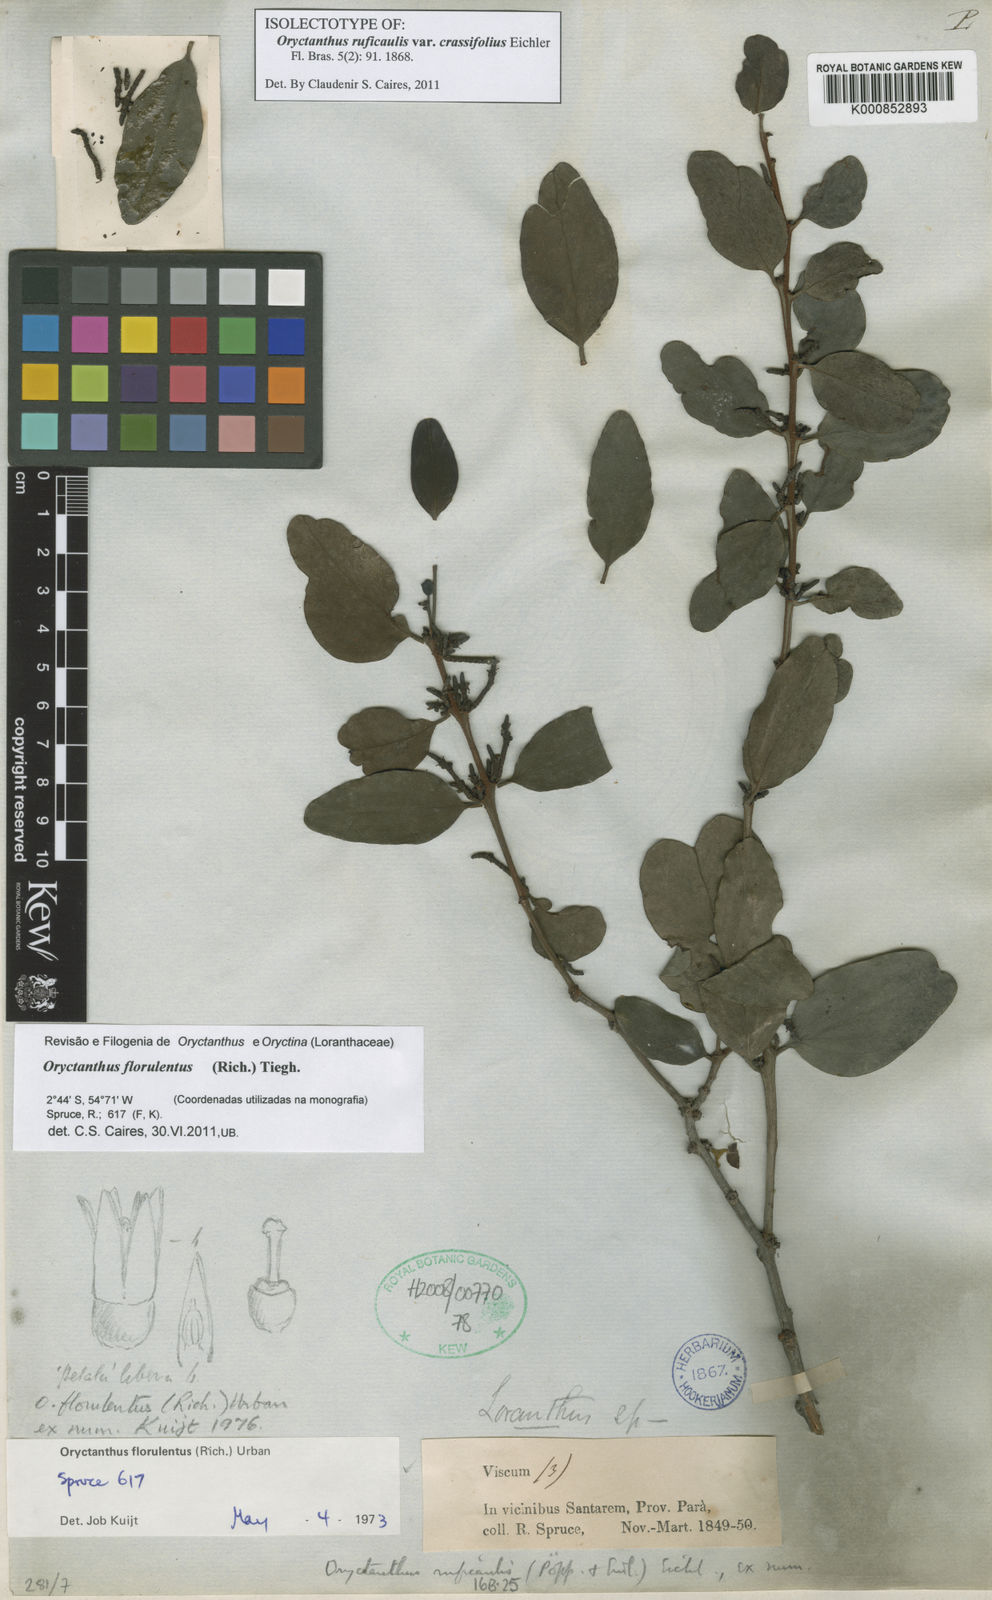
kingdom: Plantae
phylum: Tracheophyta
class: Magnoliopsida
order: Santalales
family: Loranthaceae
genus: Oryctanthus
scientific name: Oryctanthus florulentus
